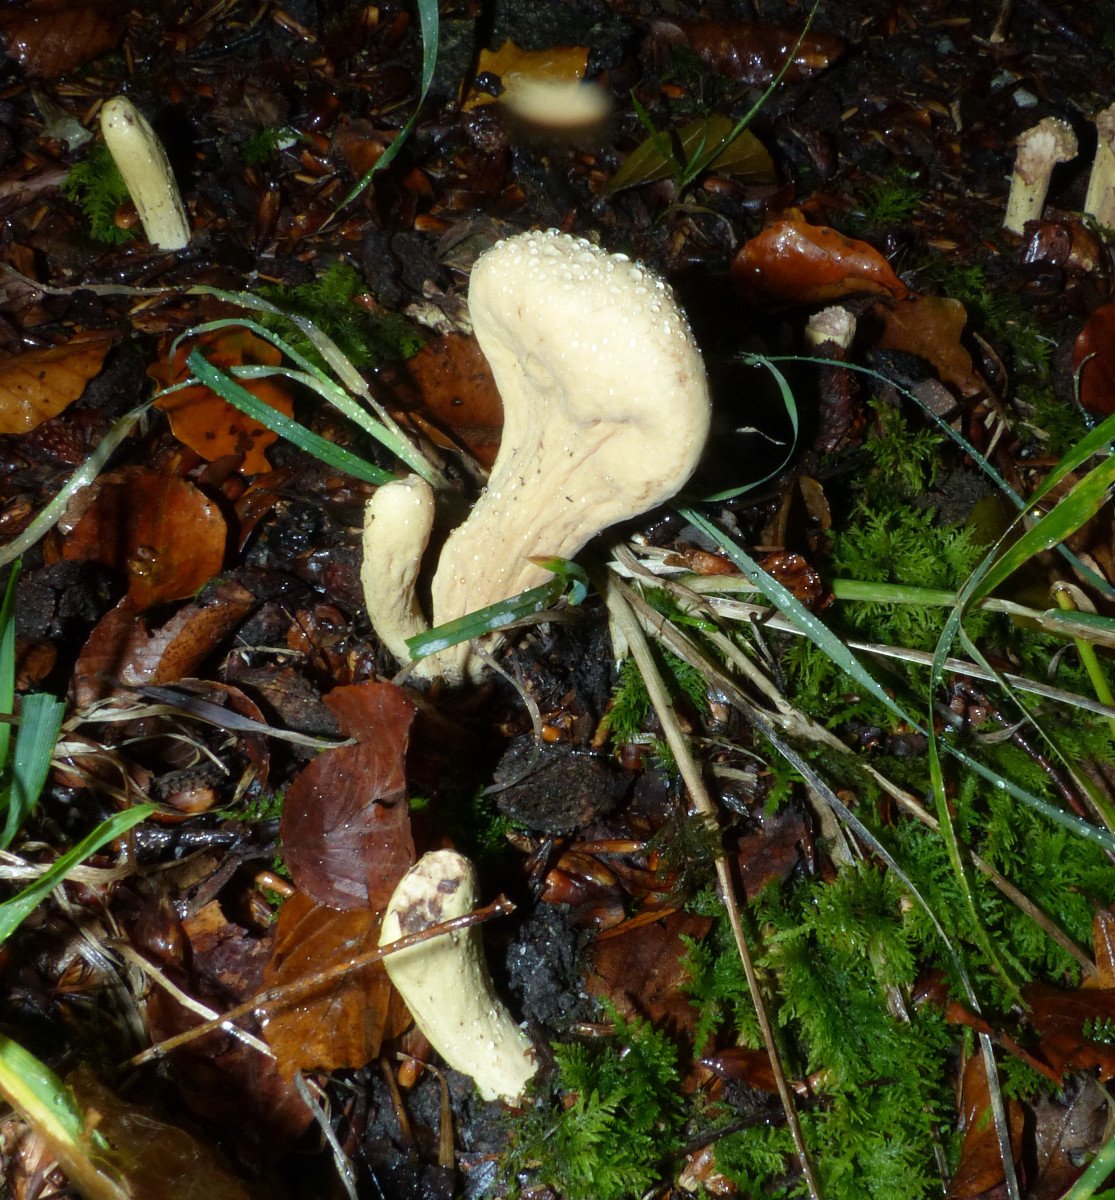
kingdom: Fungi
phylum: Basidiomycota
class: Agaricomycetes
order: Gomphales
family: Clavariadelphaceae
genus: Clavariadelphus
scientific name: Clavariadelphus pistillaris
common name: herkules-kæmpekølle
